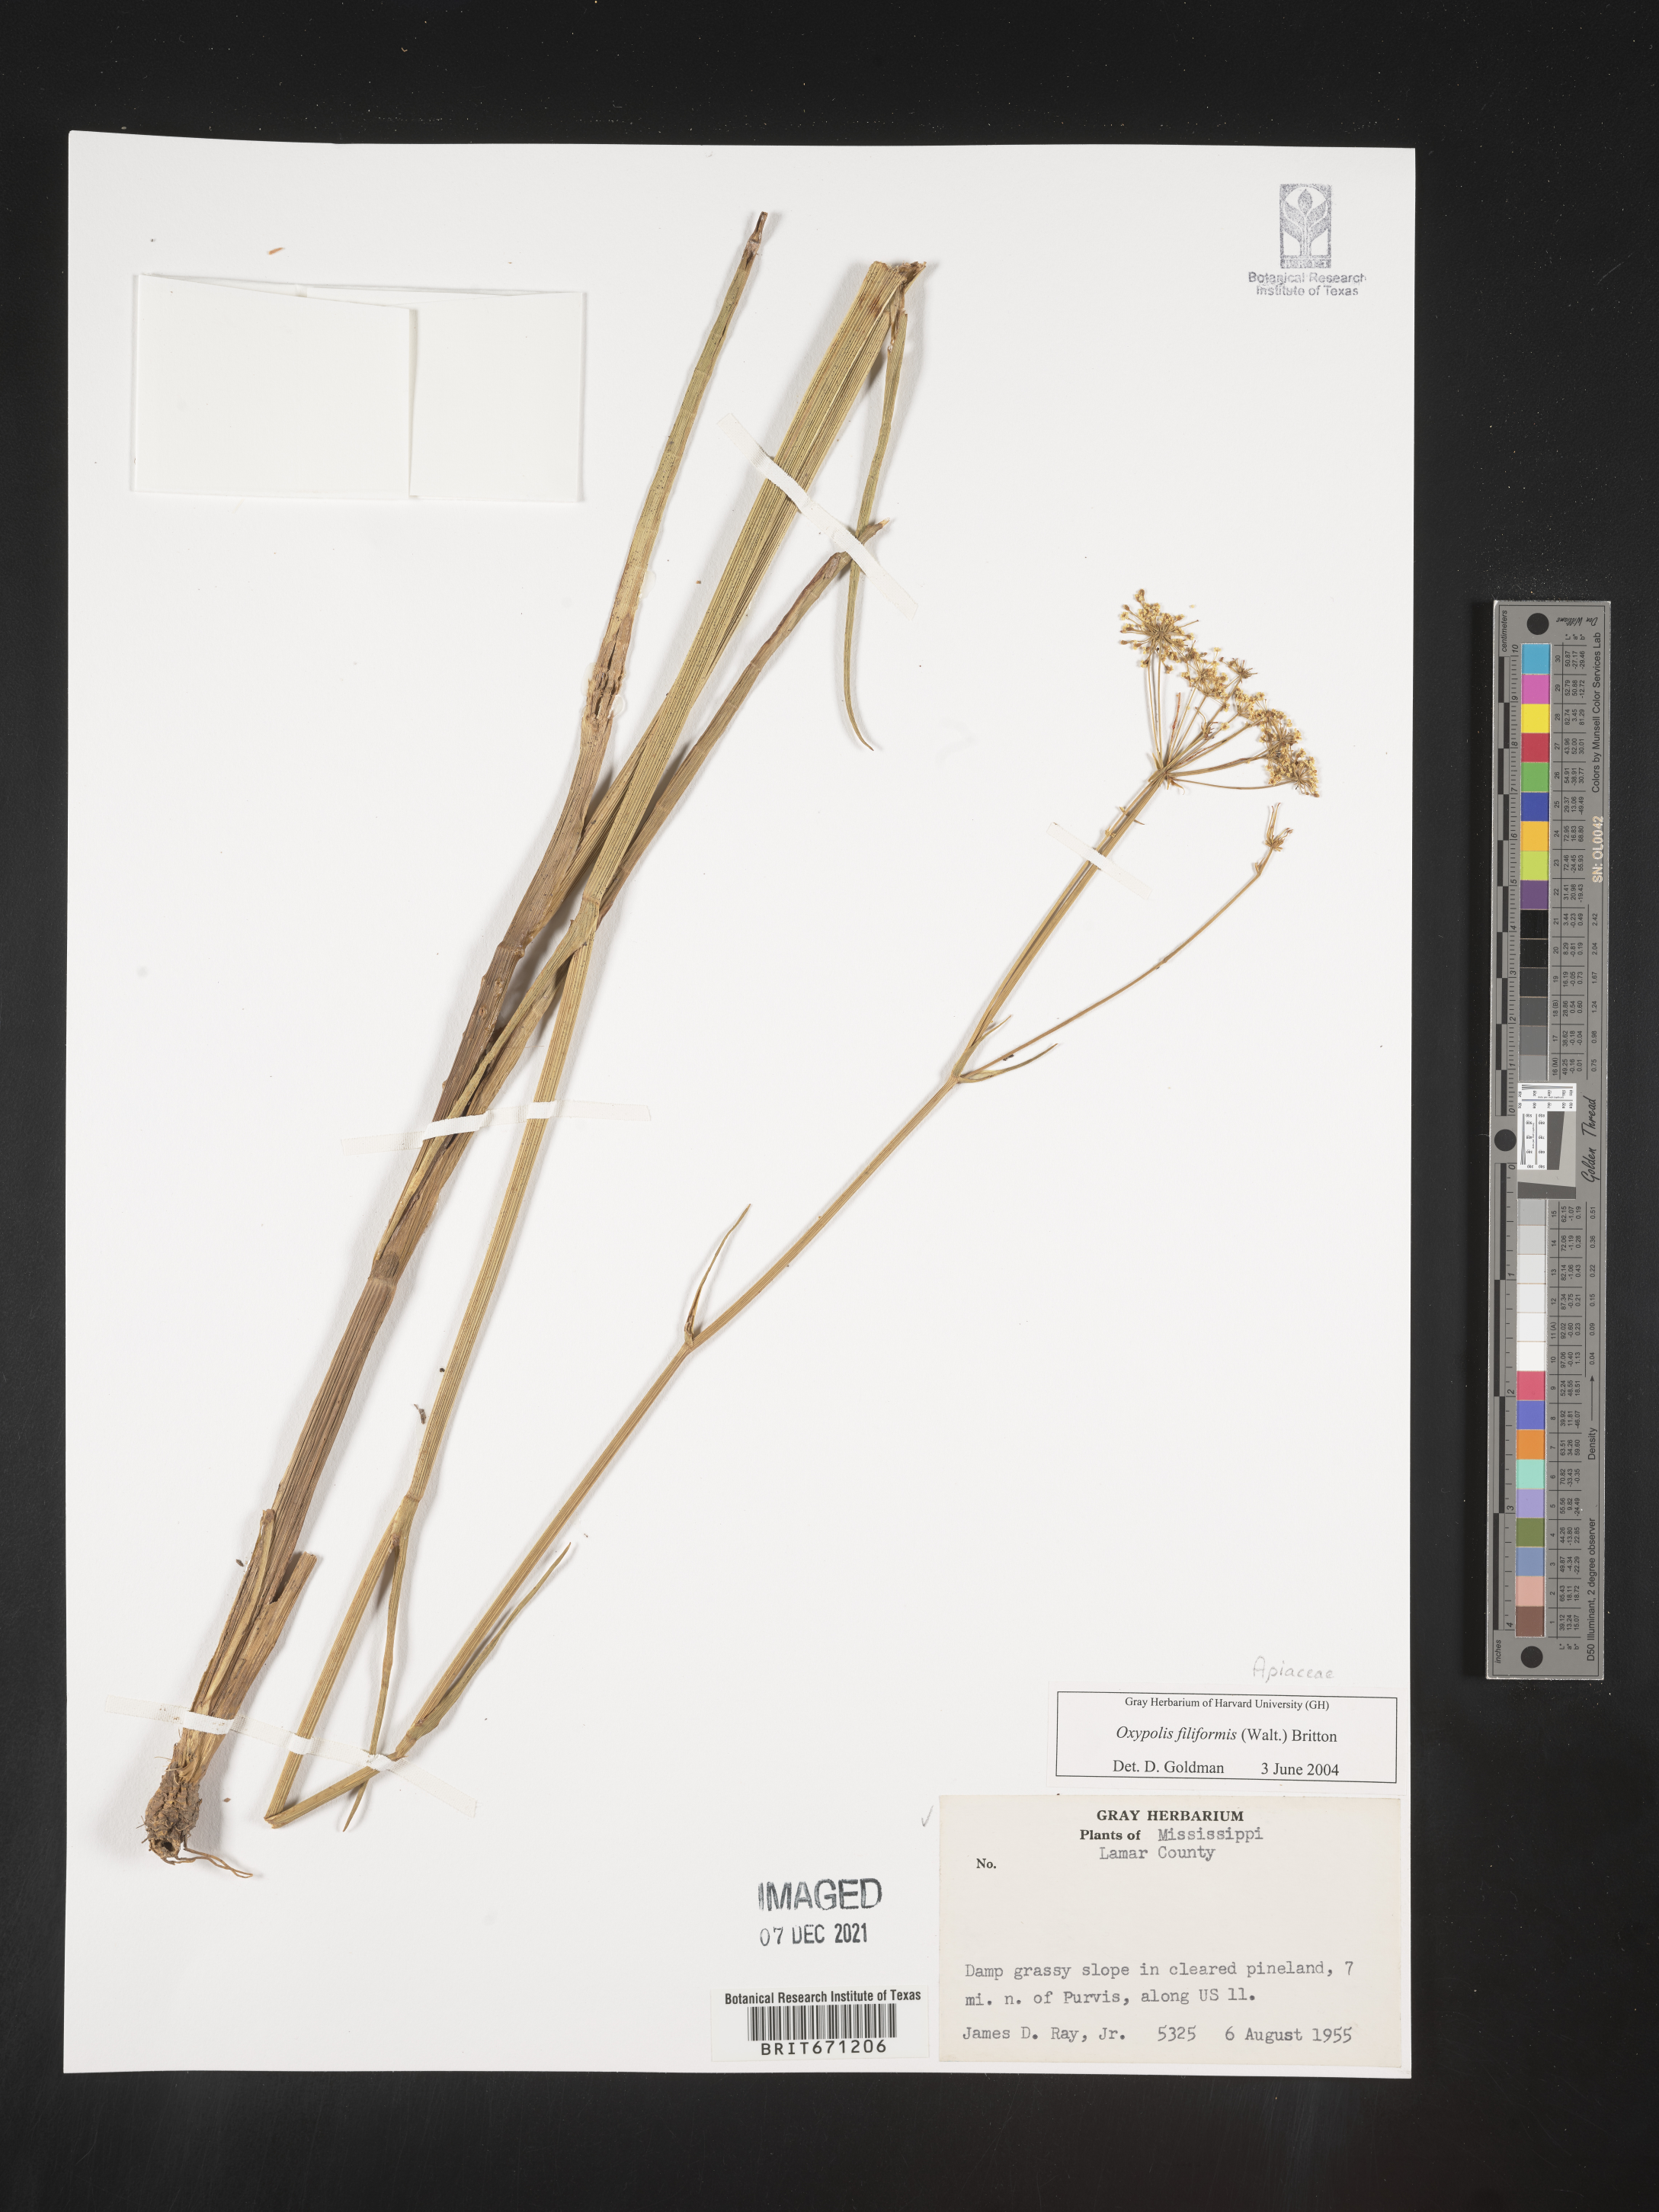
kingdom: Plantae
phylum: Tracheophyta
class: Magnoliopsida
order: Apiales
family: Apiaceae
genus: Tiedemannia
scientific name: Tiedemannia filiformis
